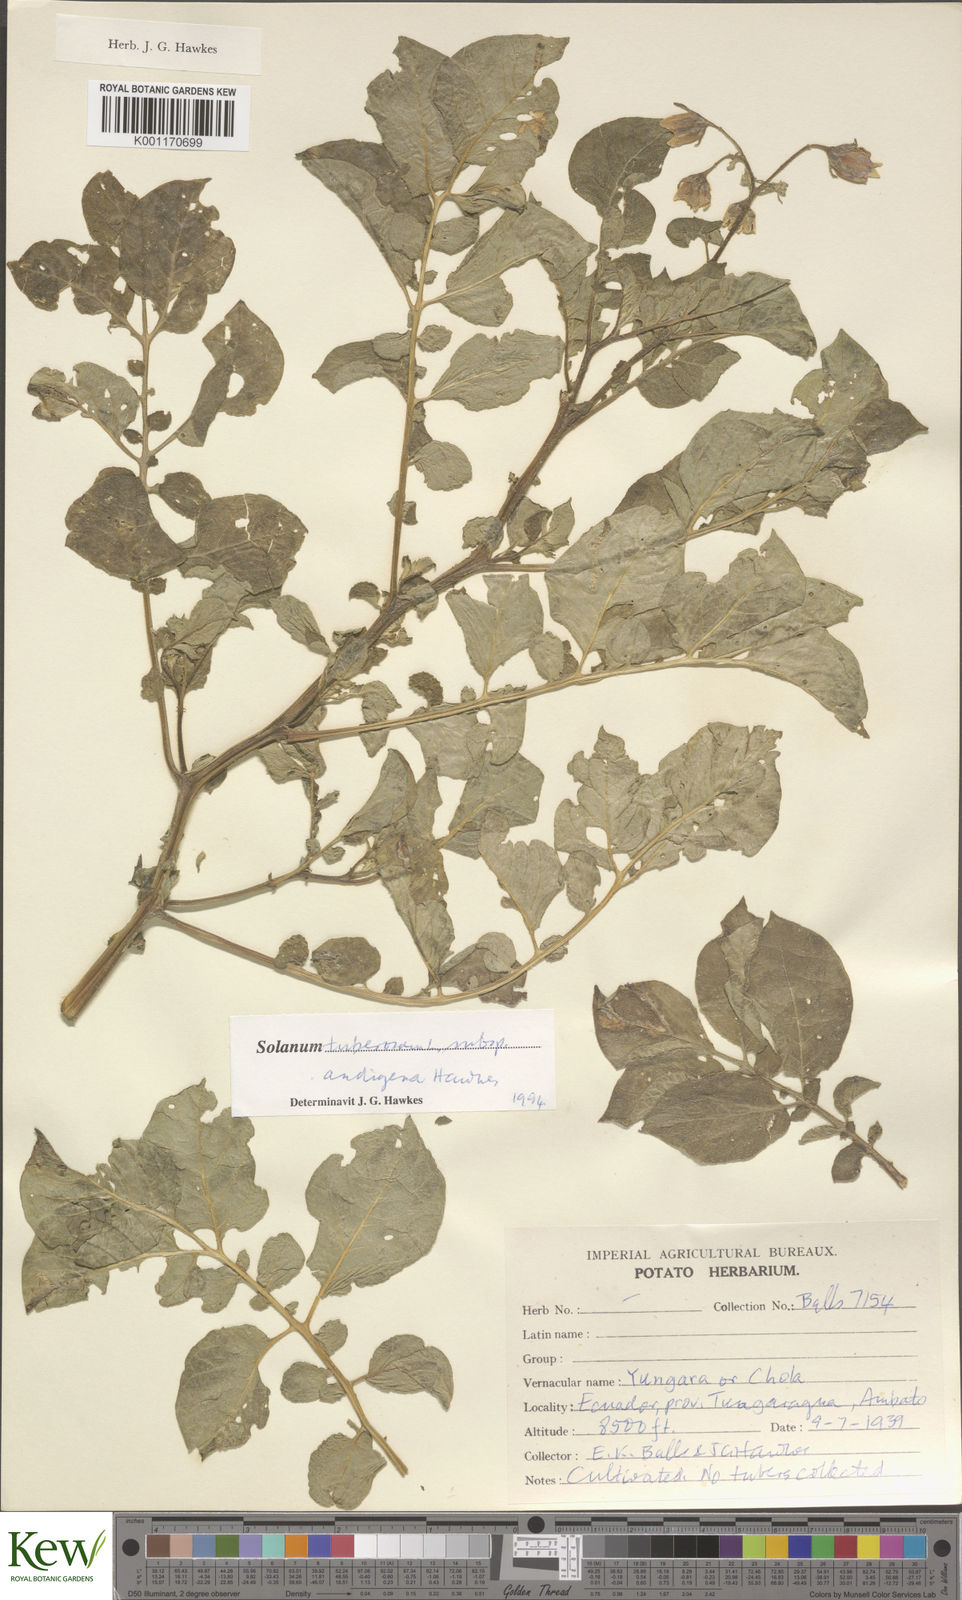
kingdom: Plantae
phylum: Tracheophyta
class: Magnoliopsida
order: Solanales
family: Solanaceae
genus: Solanum
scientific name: Solanum tuberosum
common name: Potato
